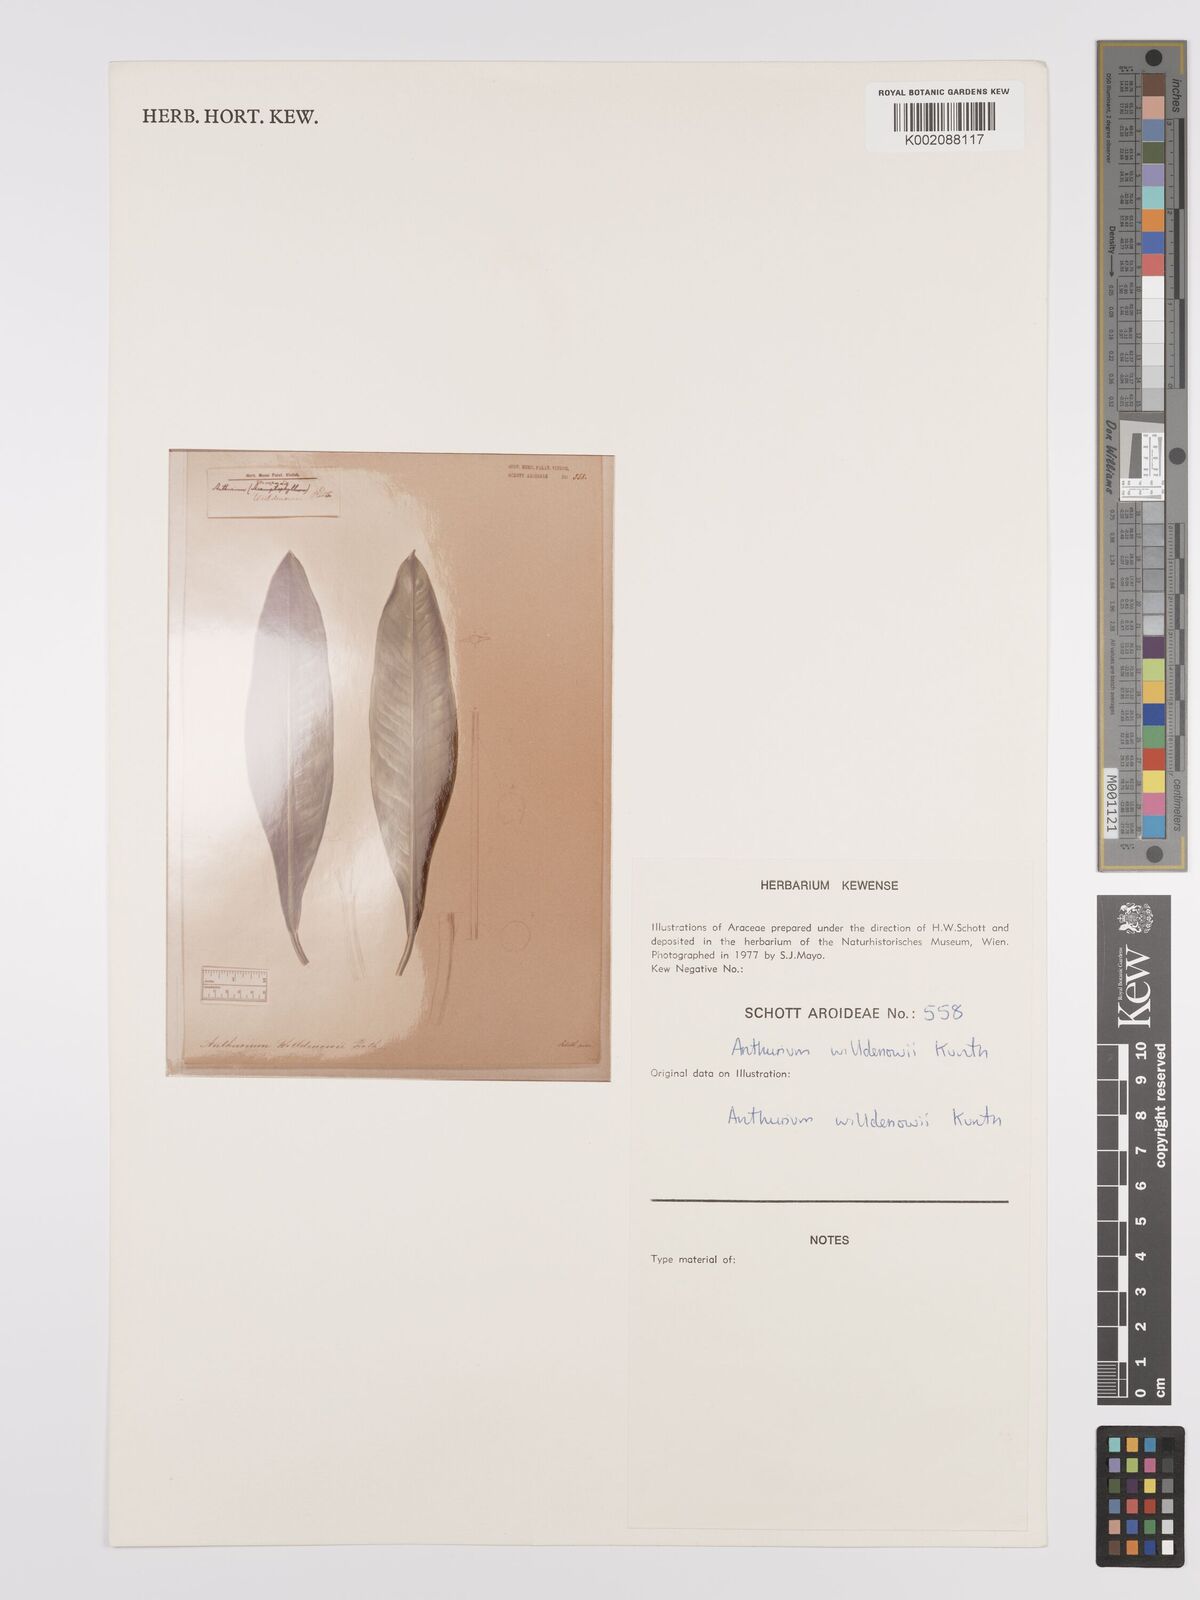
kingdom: Plantae
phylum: Tracheophyta
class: Liliopsida
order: Alismatales
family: Araceae
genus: Anthurium
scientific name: Anthurium willdenowii
